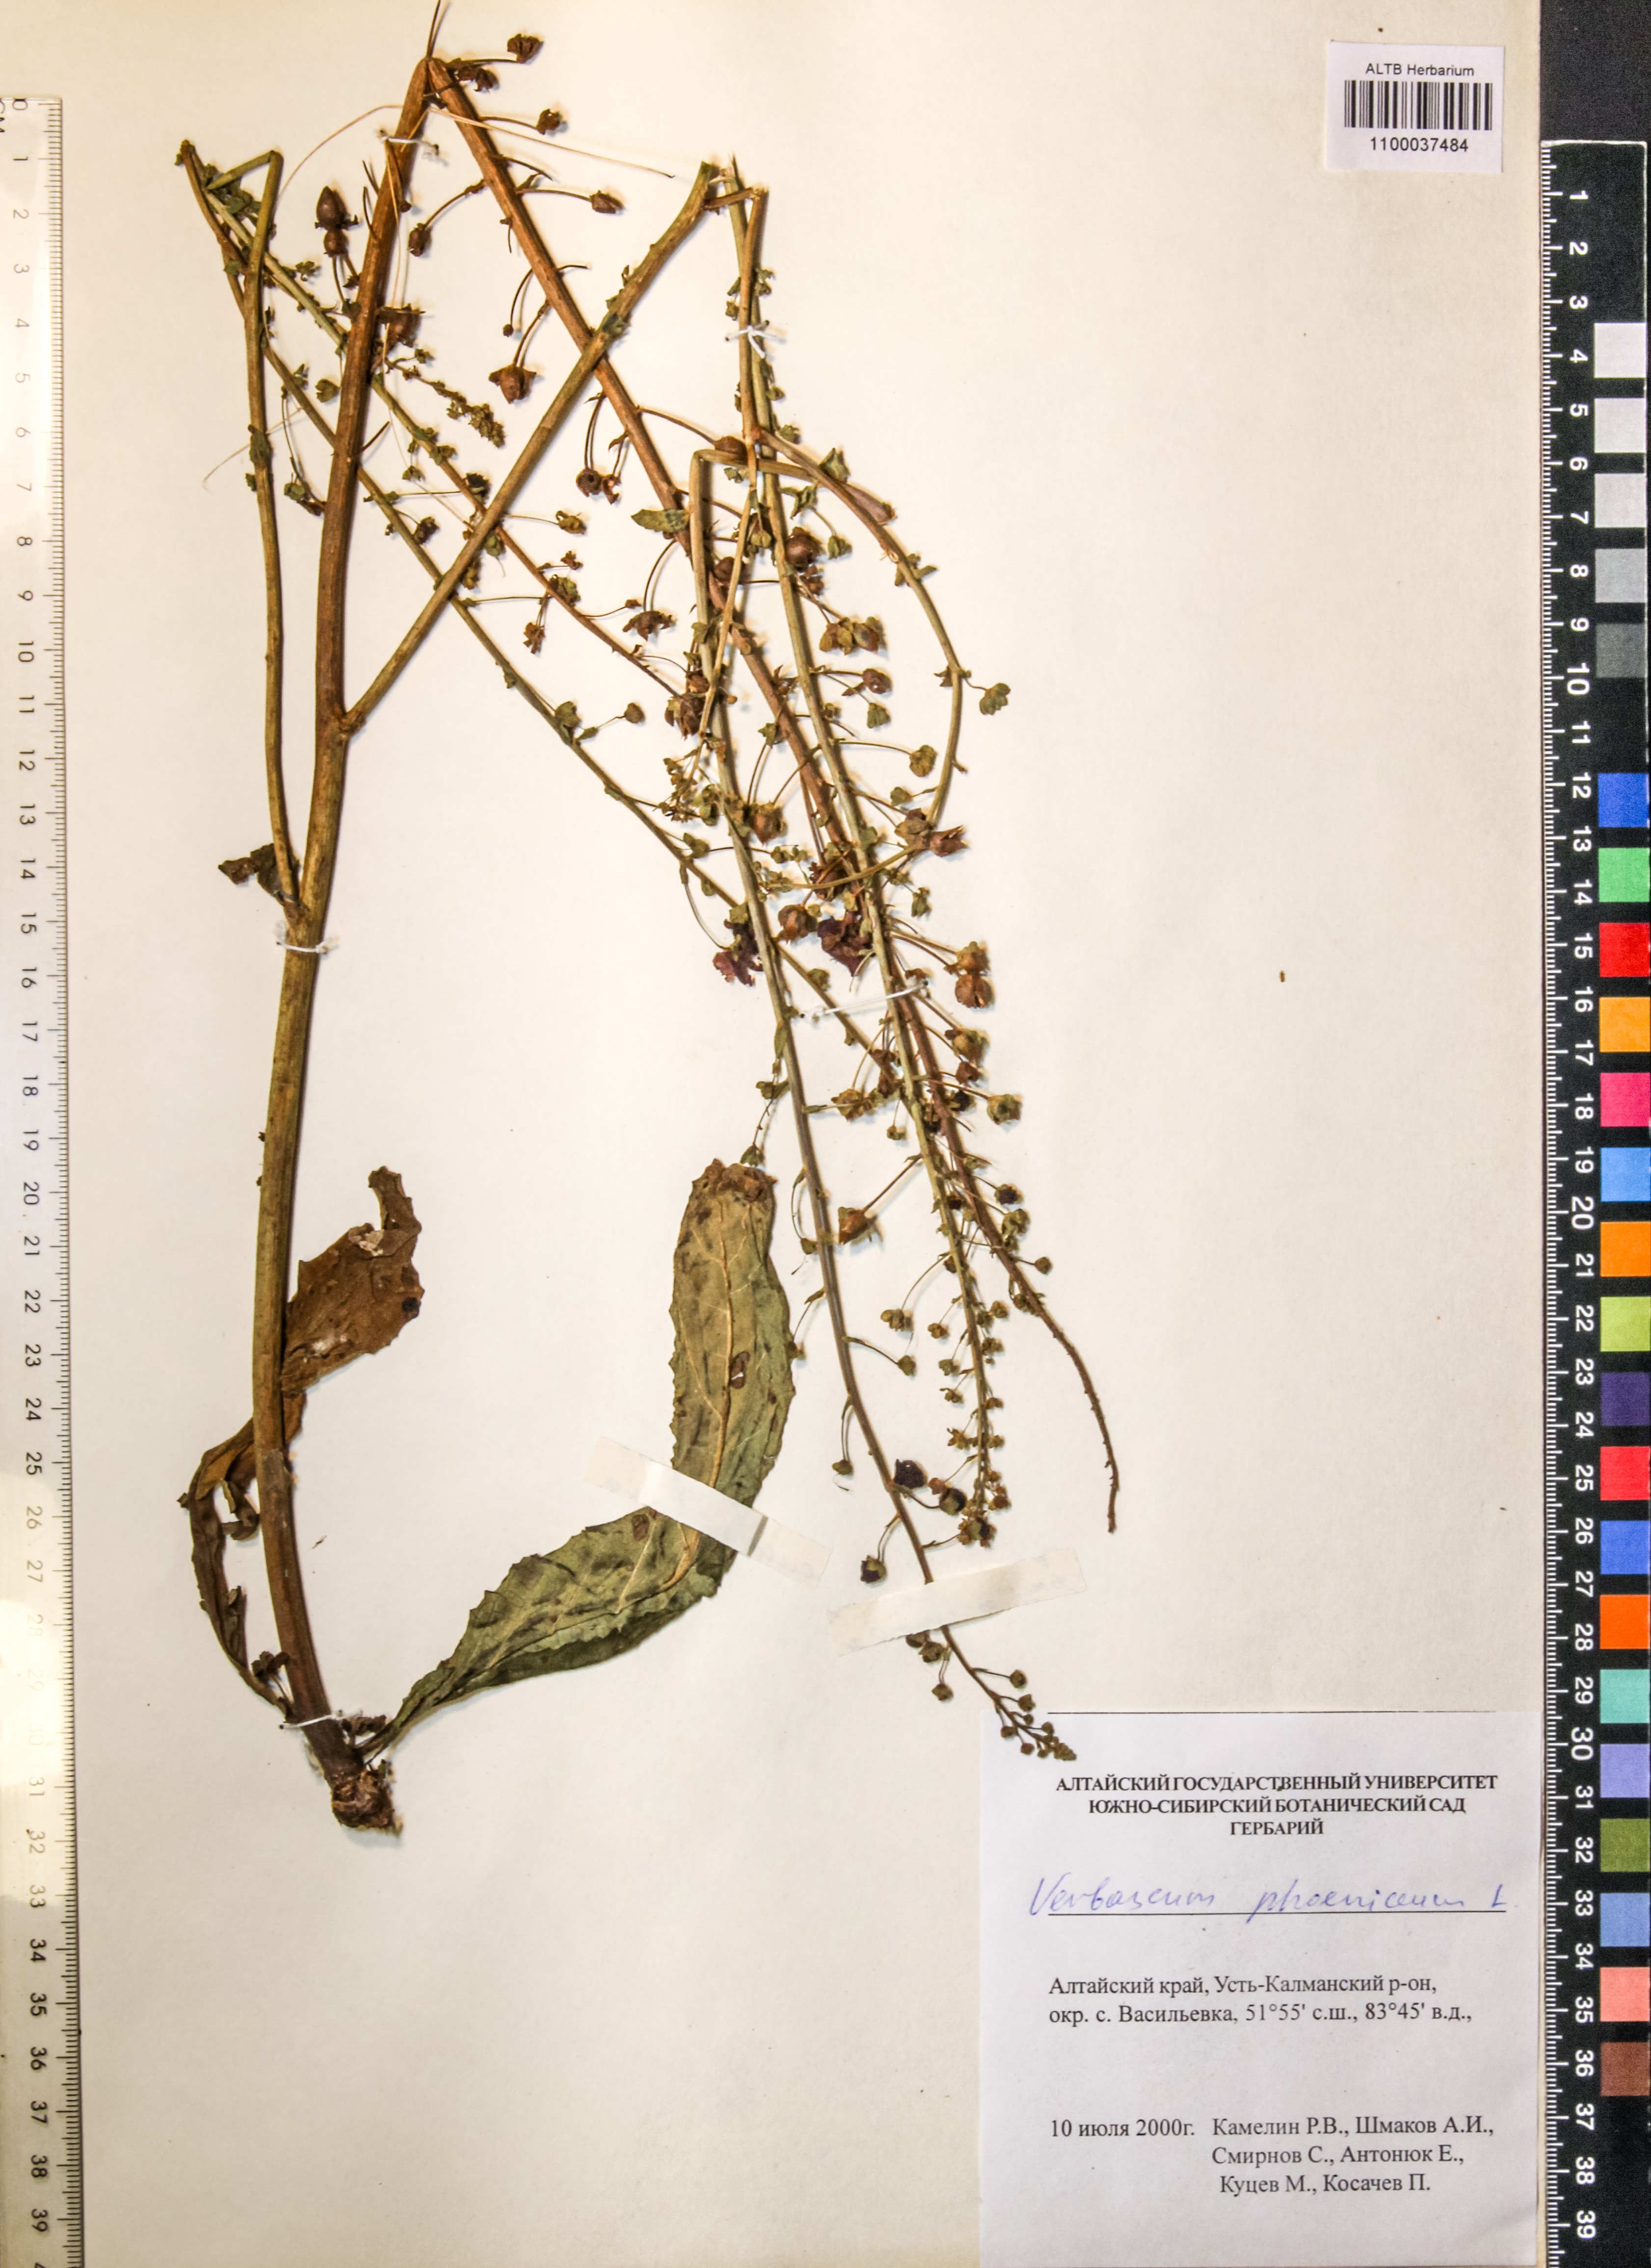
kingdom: Plantae
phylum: Tracheophyta
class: Magnoliopsida
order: Lamiales
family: Scrophulariaceae
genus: Verbascum
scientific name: Verbascum phoeniceum
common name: Purple mullein
